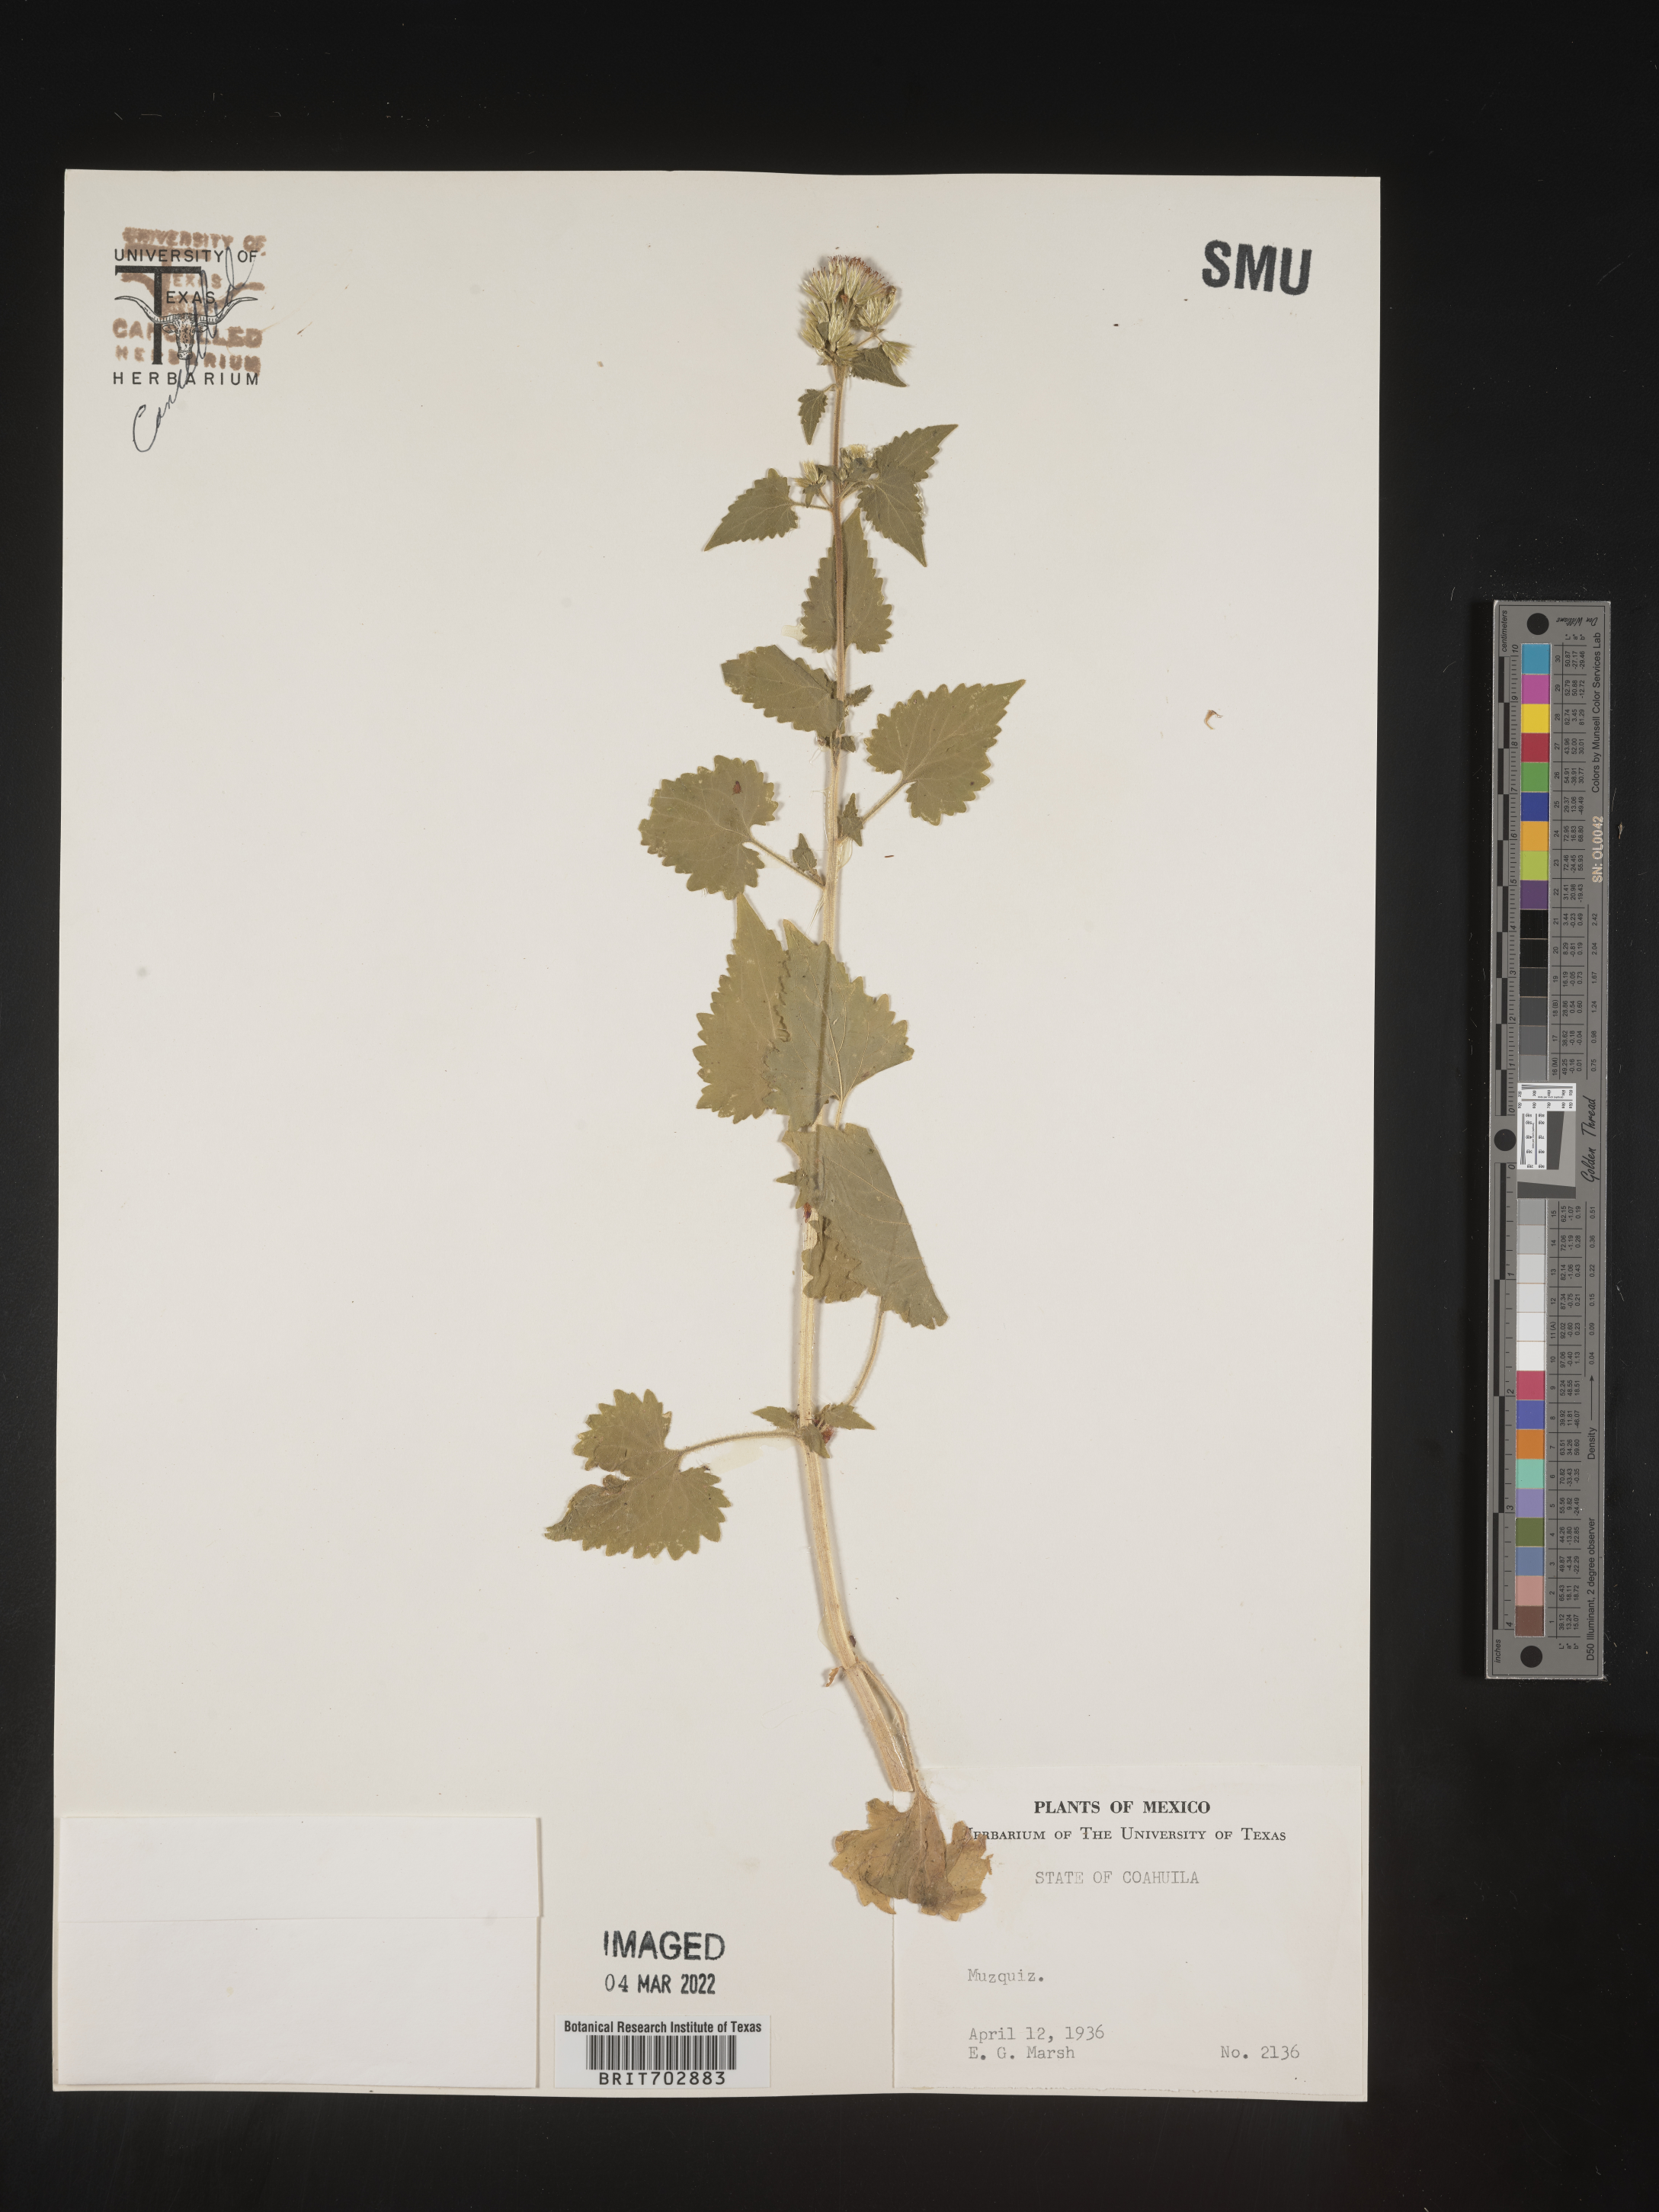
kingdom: Plantae
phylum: Tracheophyta
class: Magnoliopsida
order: Asterales
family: Asteraceae
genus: Eupatorium
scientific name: Eupatorium
